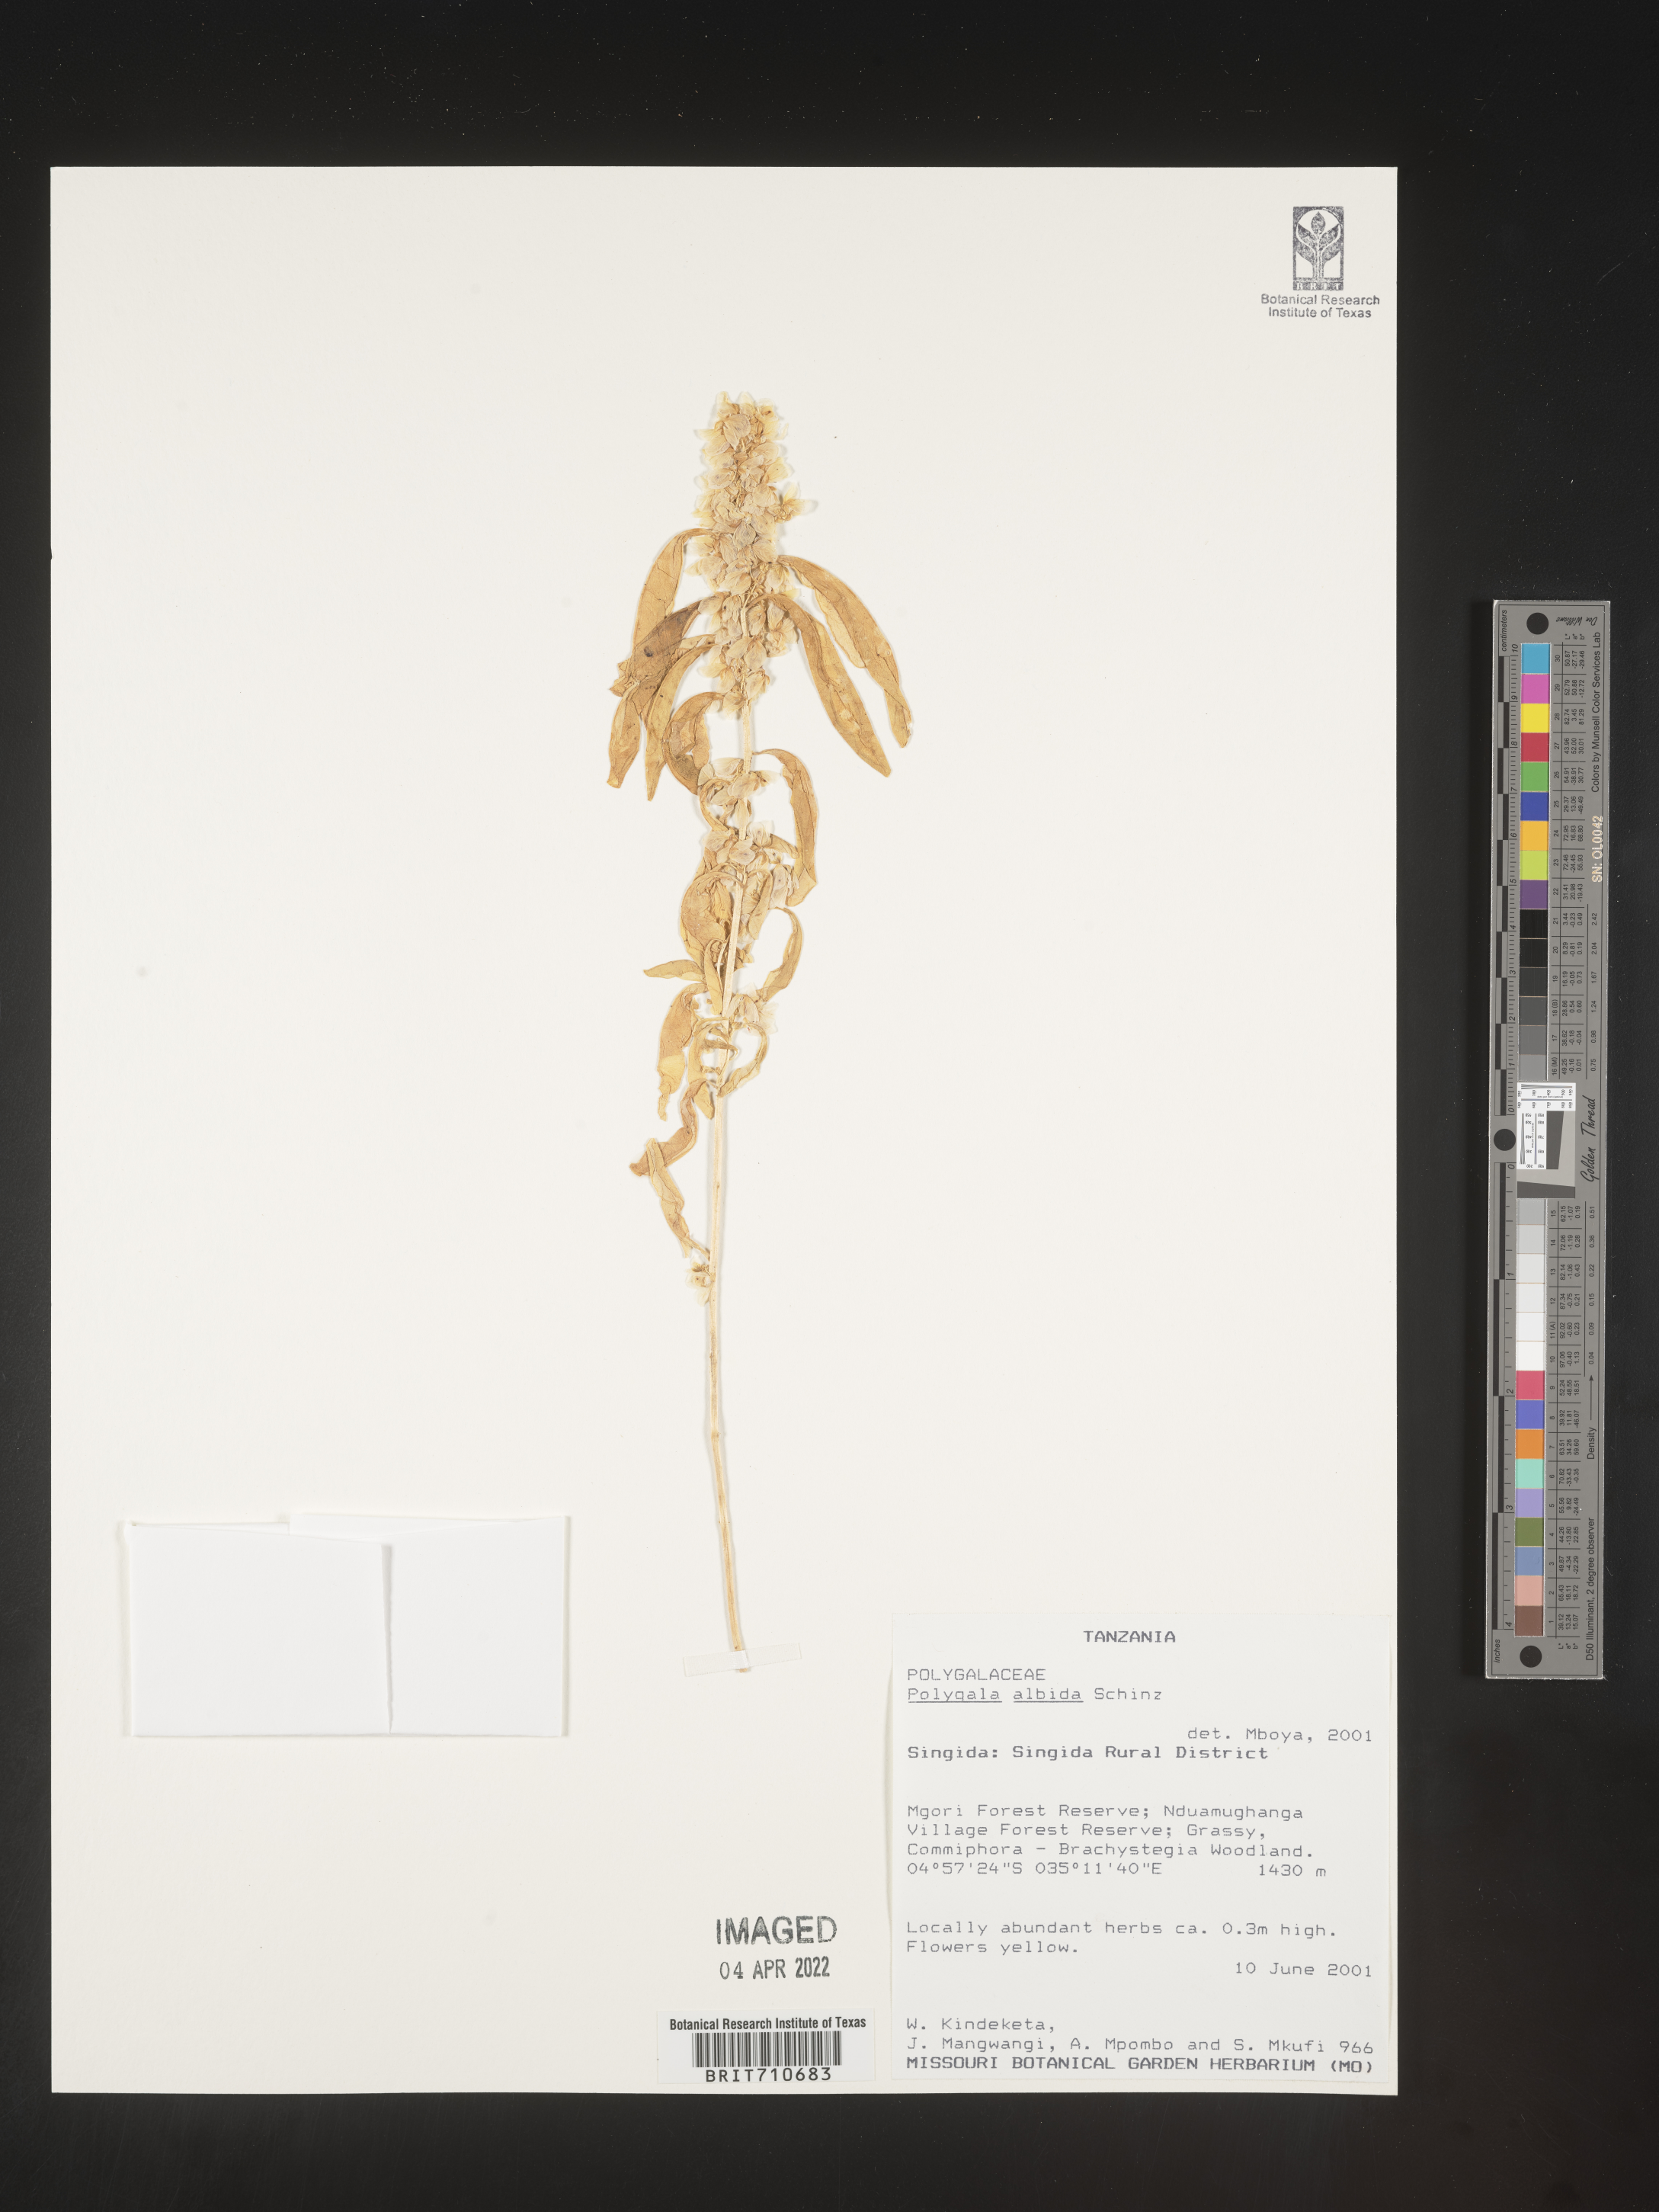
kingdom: Plantae
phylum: Tracheophyta
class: Magnoliopsida
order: Fabales
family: Polygalaceae
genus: Polygala
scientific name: Polygala
